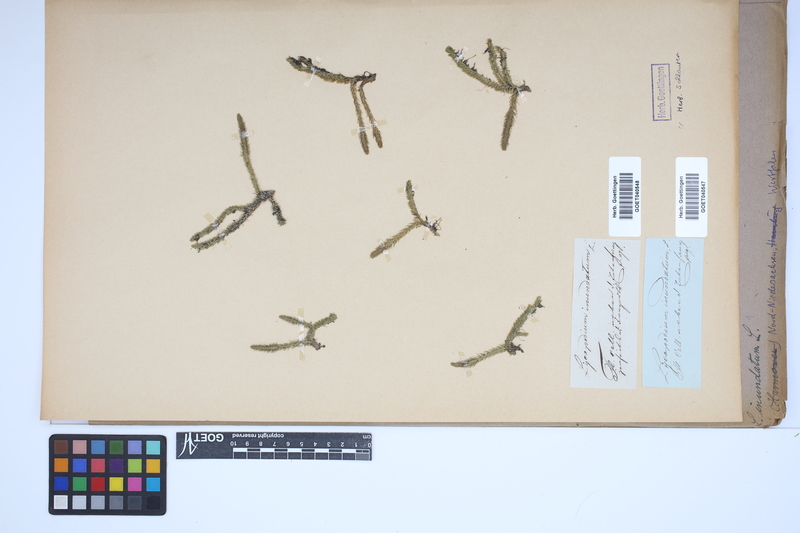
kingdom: Plantae
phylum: Tracheophyta
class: Lycopodiopsida
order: Lycopodiales
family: Lycopodiaceae
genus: Lycopodiella
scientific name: Lycopodiella inundata
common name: Marsh clubmoss
